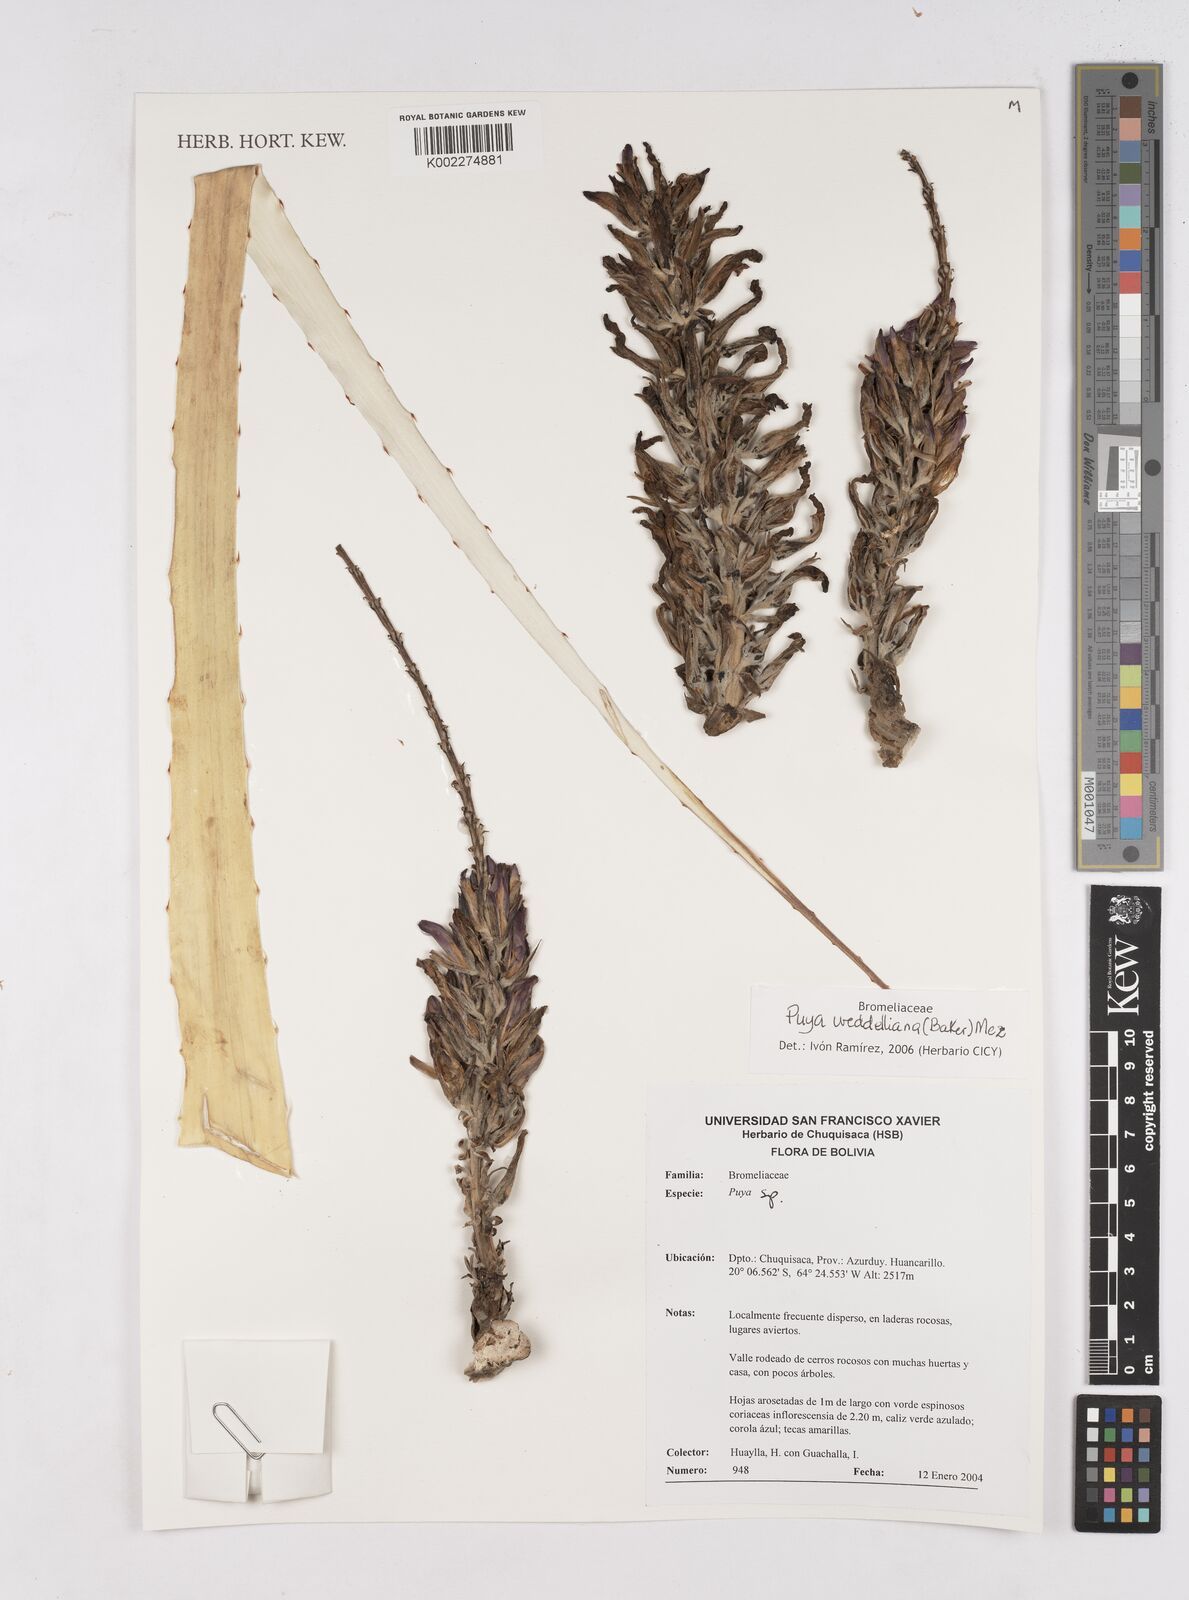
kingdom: Plantae
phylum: Tracheophyta
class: Liliopsida
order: Poales
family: Bromeliaceae
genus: Puya
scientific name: Puya weddelliana
